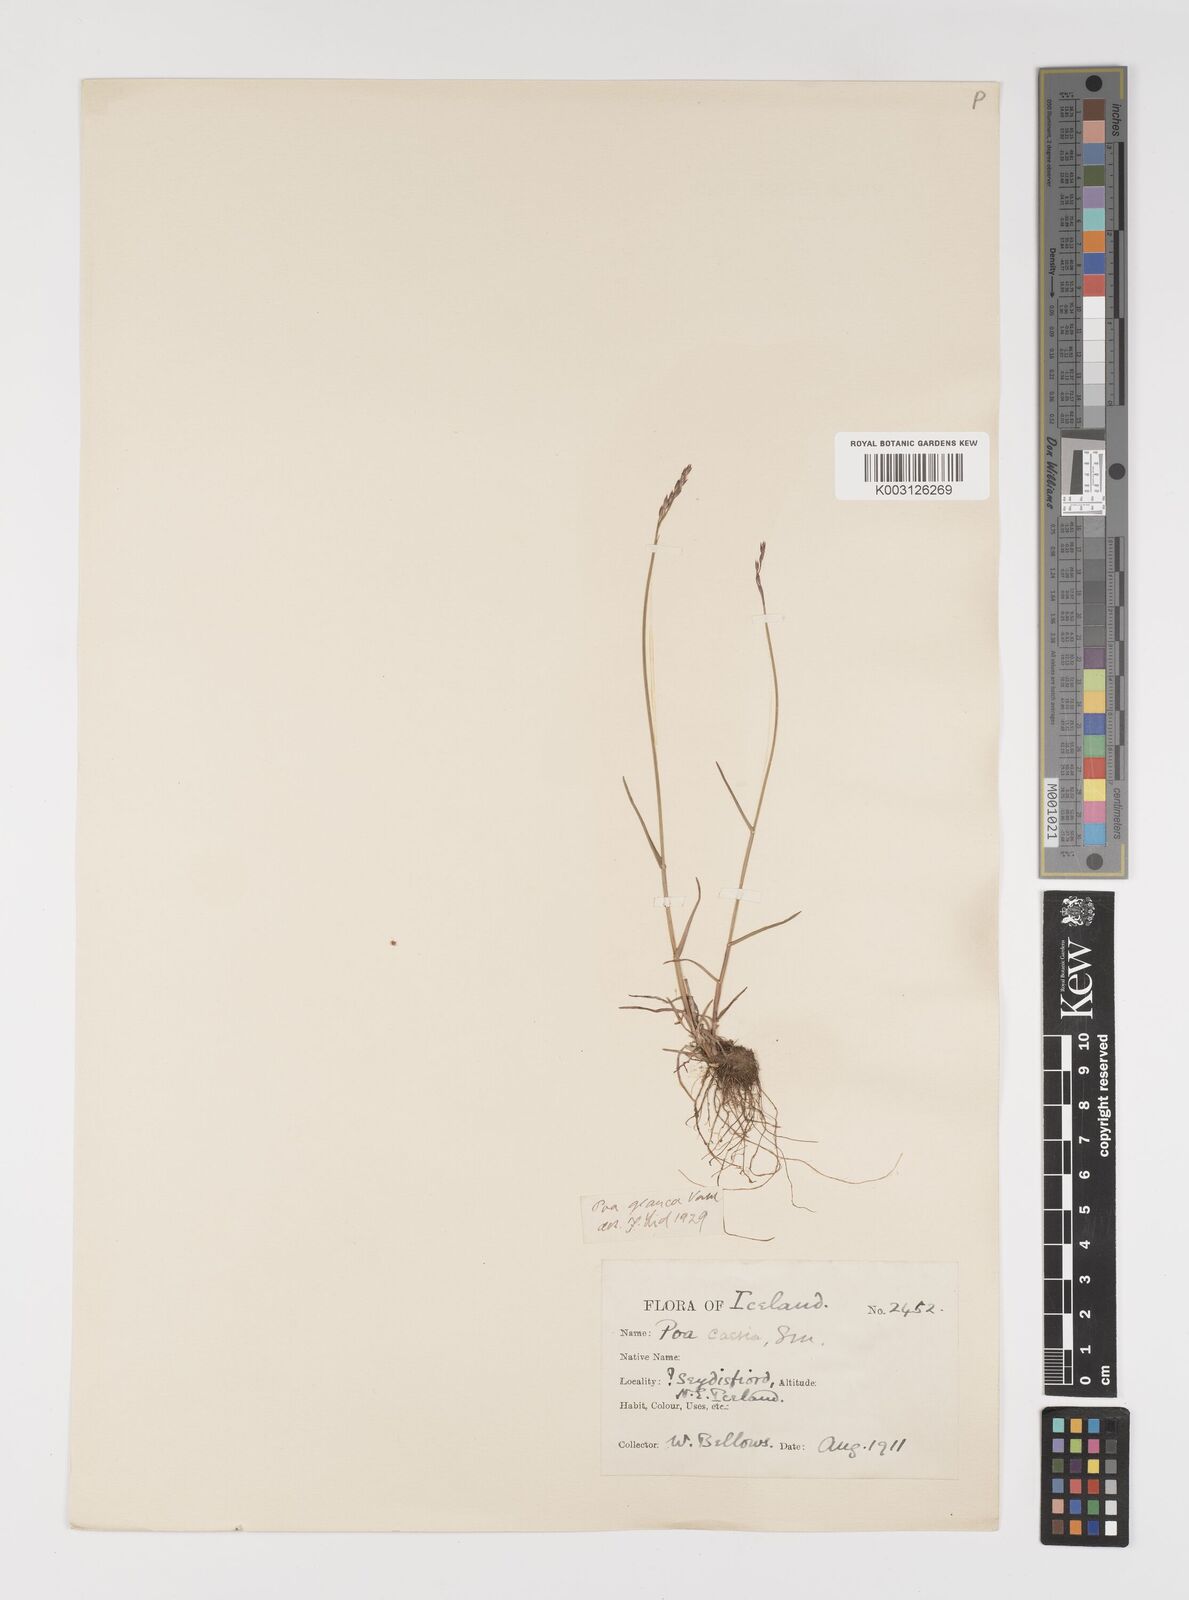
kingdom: Plantae
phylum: Tracheophyta
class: Liliopsida
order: Poales
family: Poaceae
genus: Poa
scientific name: Poa glauca
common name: Glaucous bluegrass
